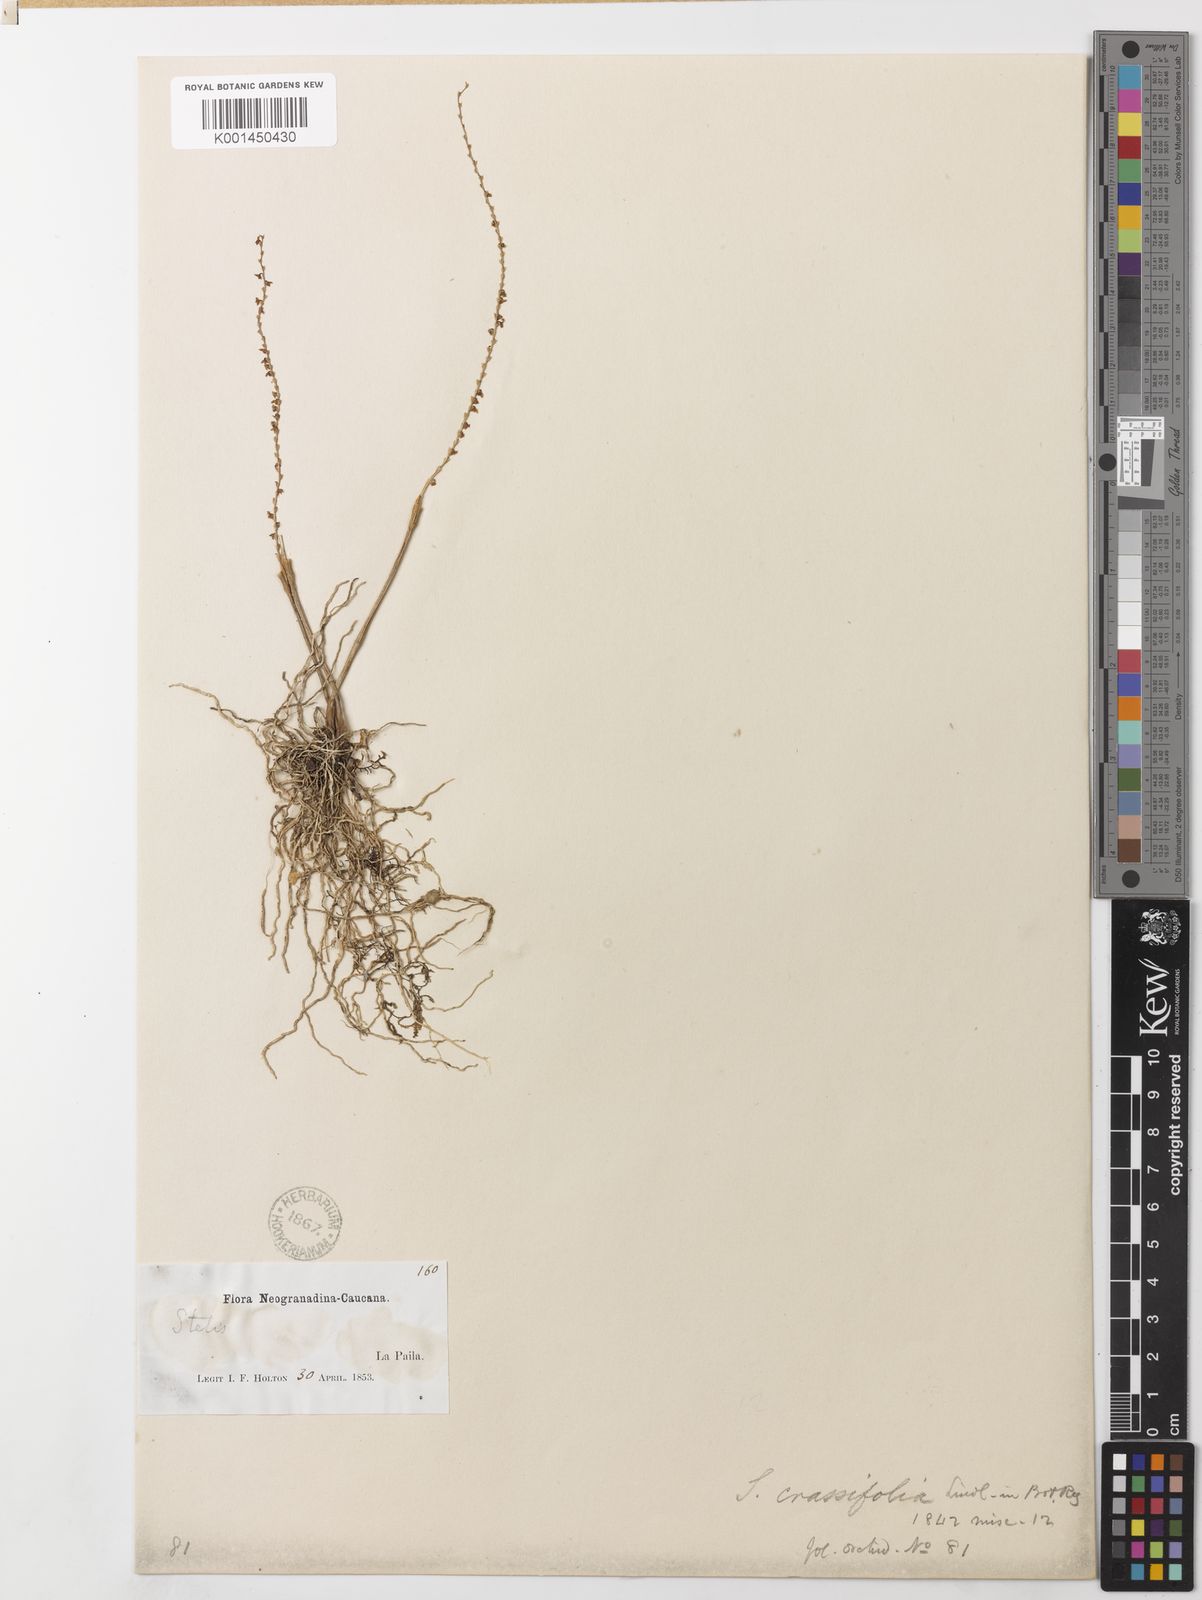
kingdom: Plantae
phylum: Tracheophyta
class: Liliopsida
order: Asparagales
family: Orchidaceae
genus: Stelis
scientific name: Stelis aprica
